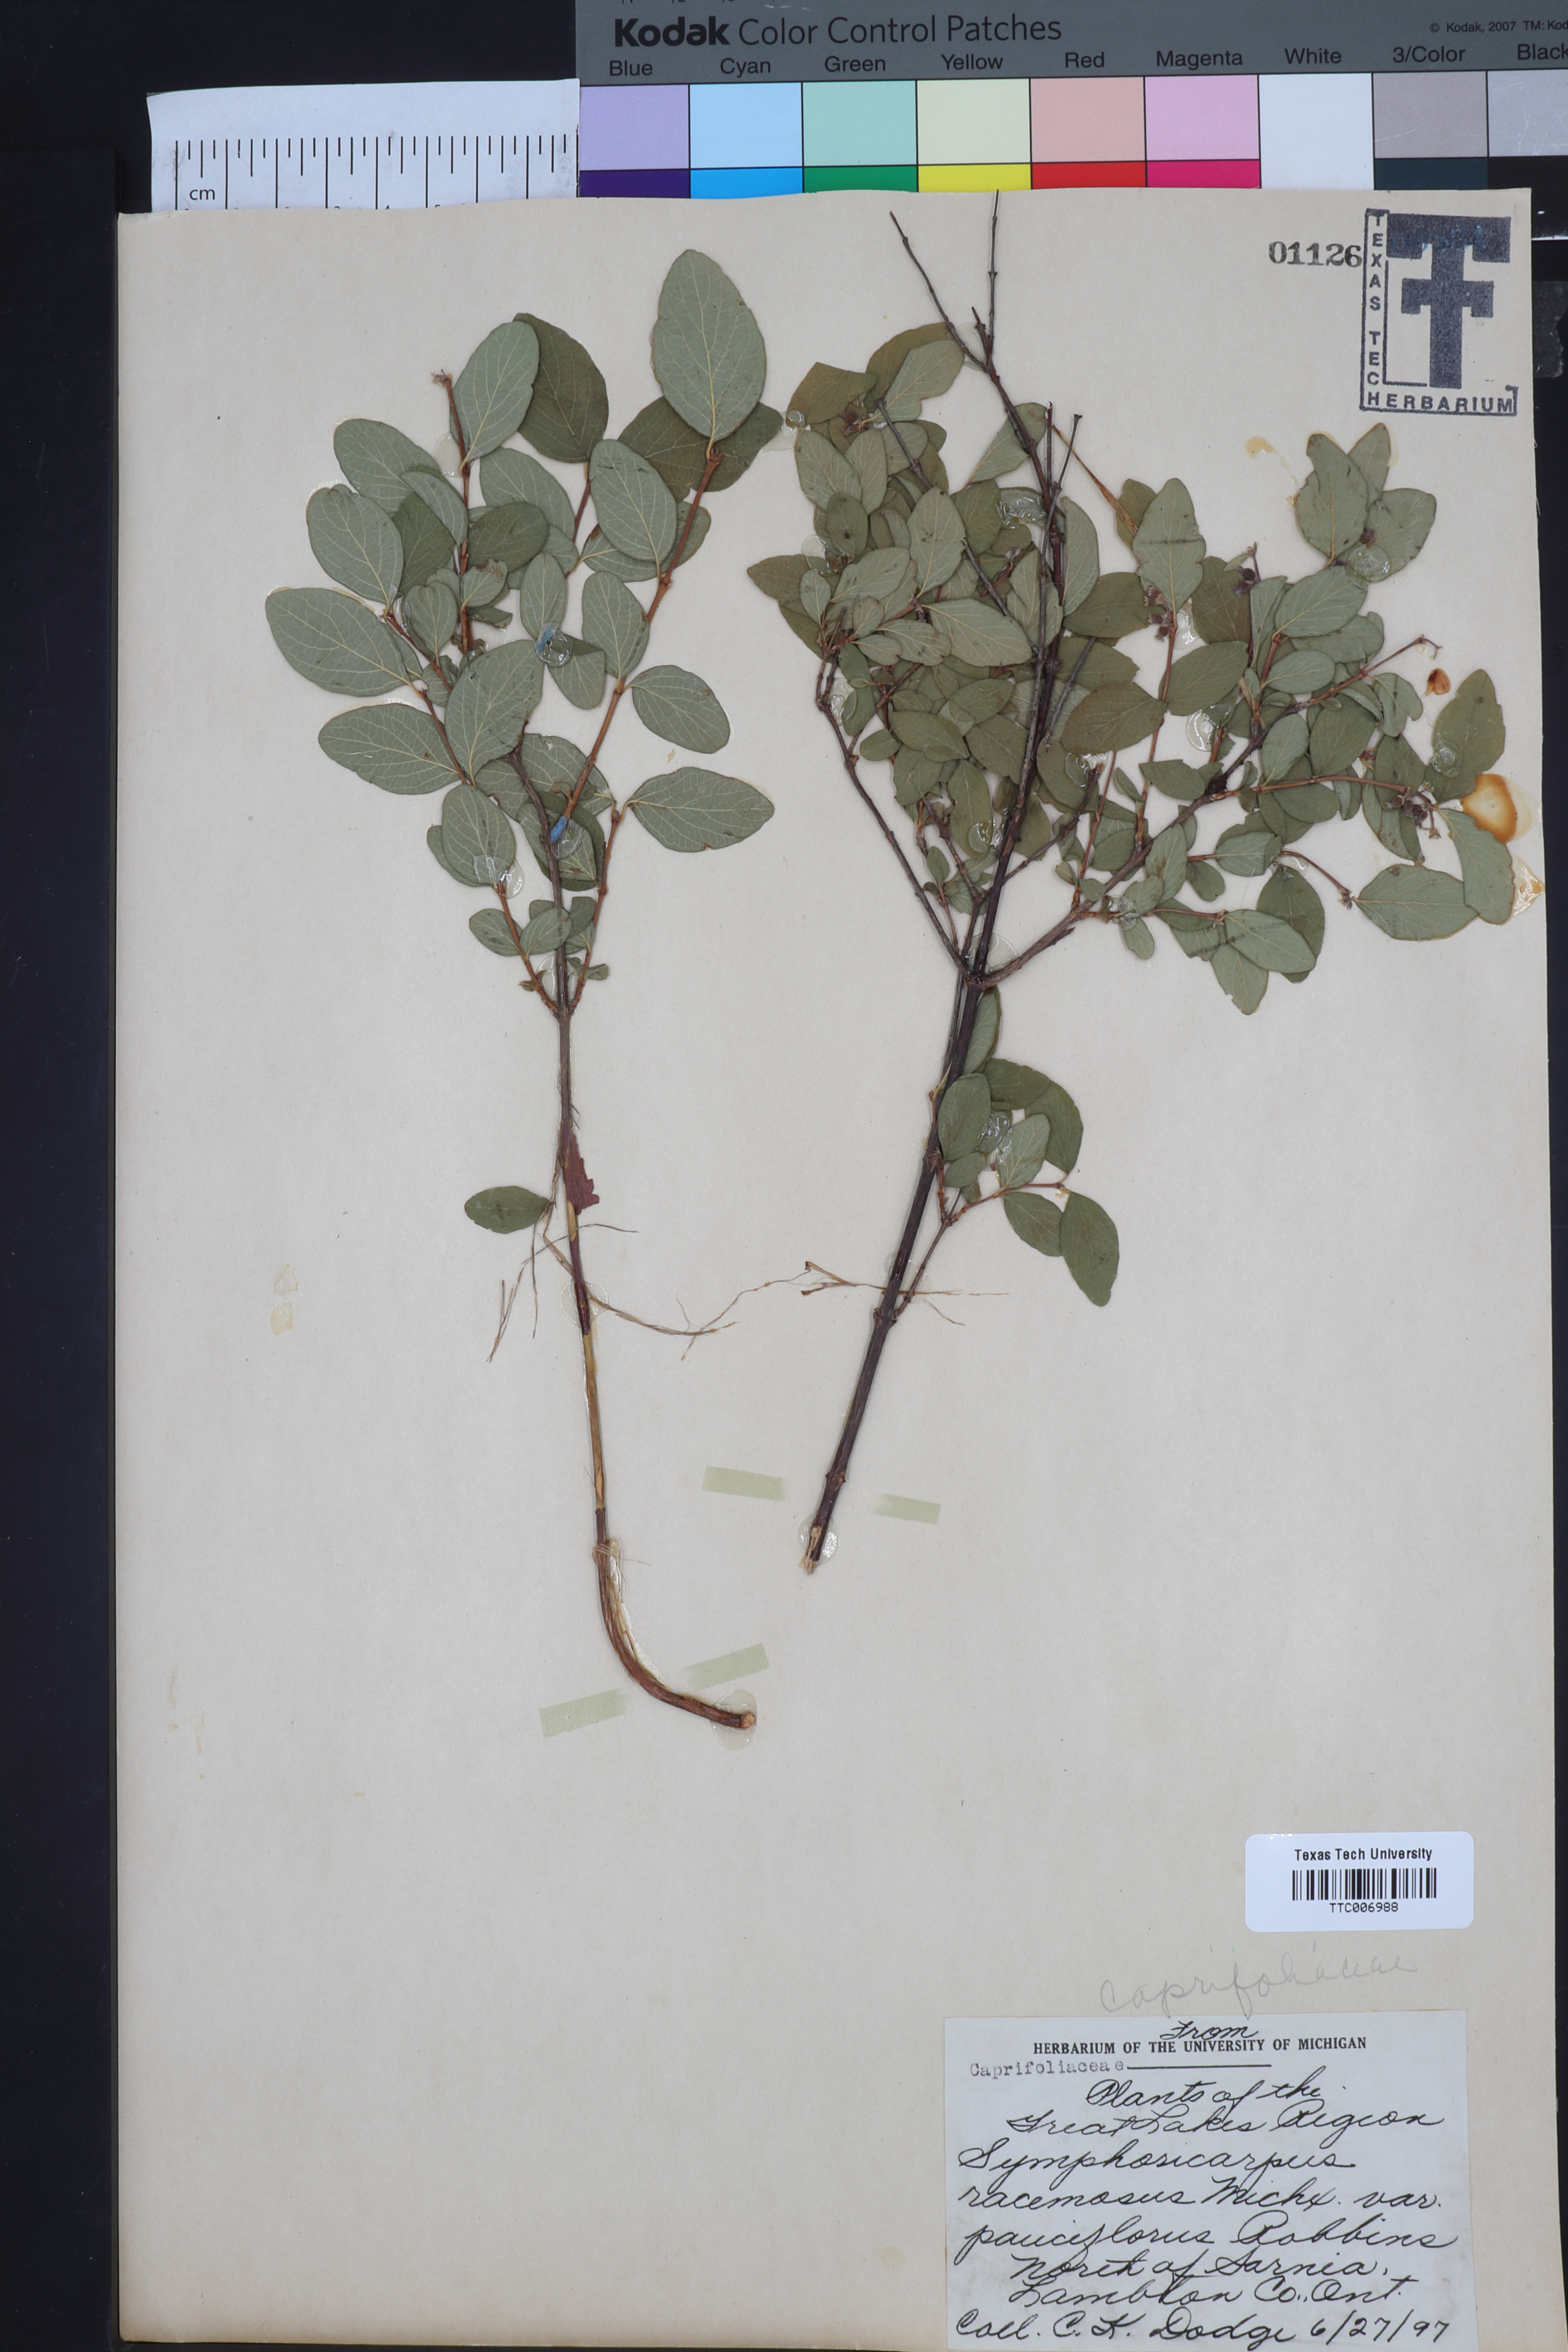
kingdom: Plantae
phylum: Tracheophyta
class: Magnoliopsida
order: Dipsacales
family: Caprifoliaceae
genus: Symphoricarpos
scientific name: Symphoricarpos albus
